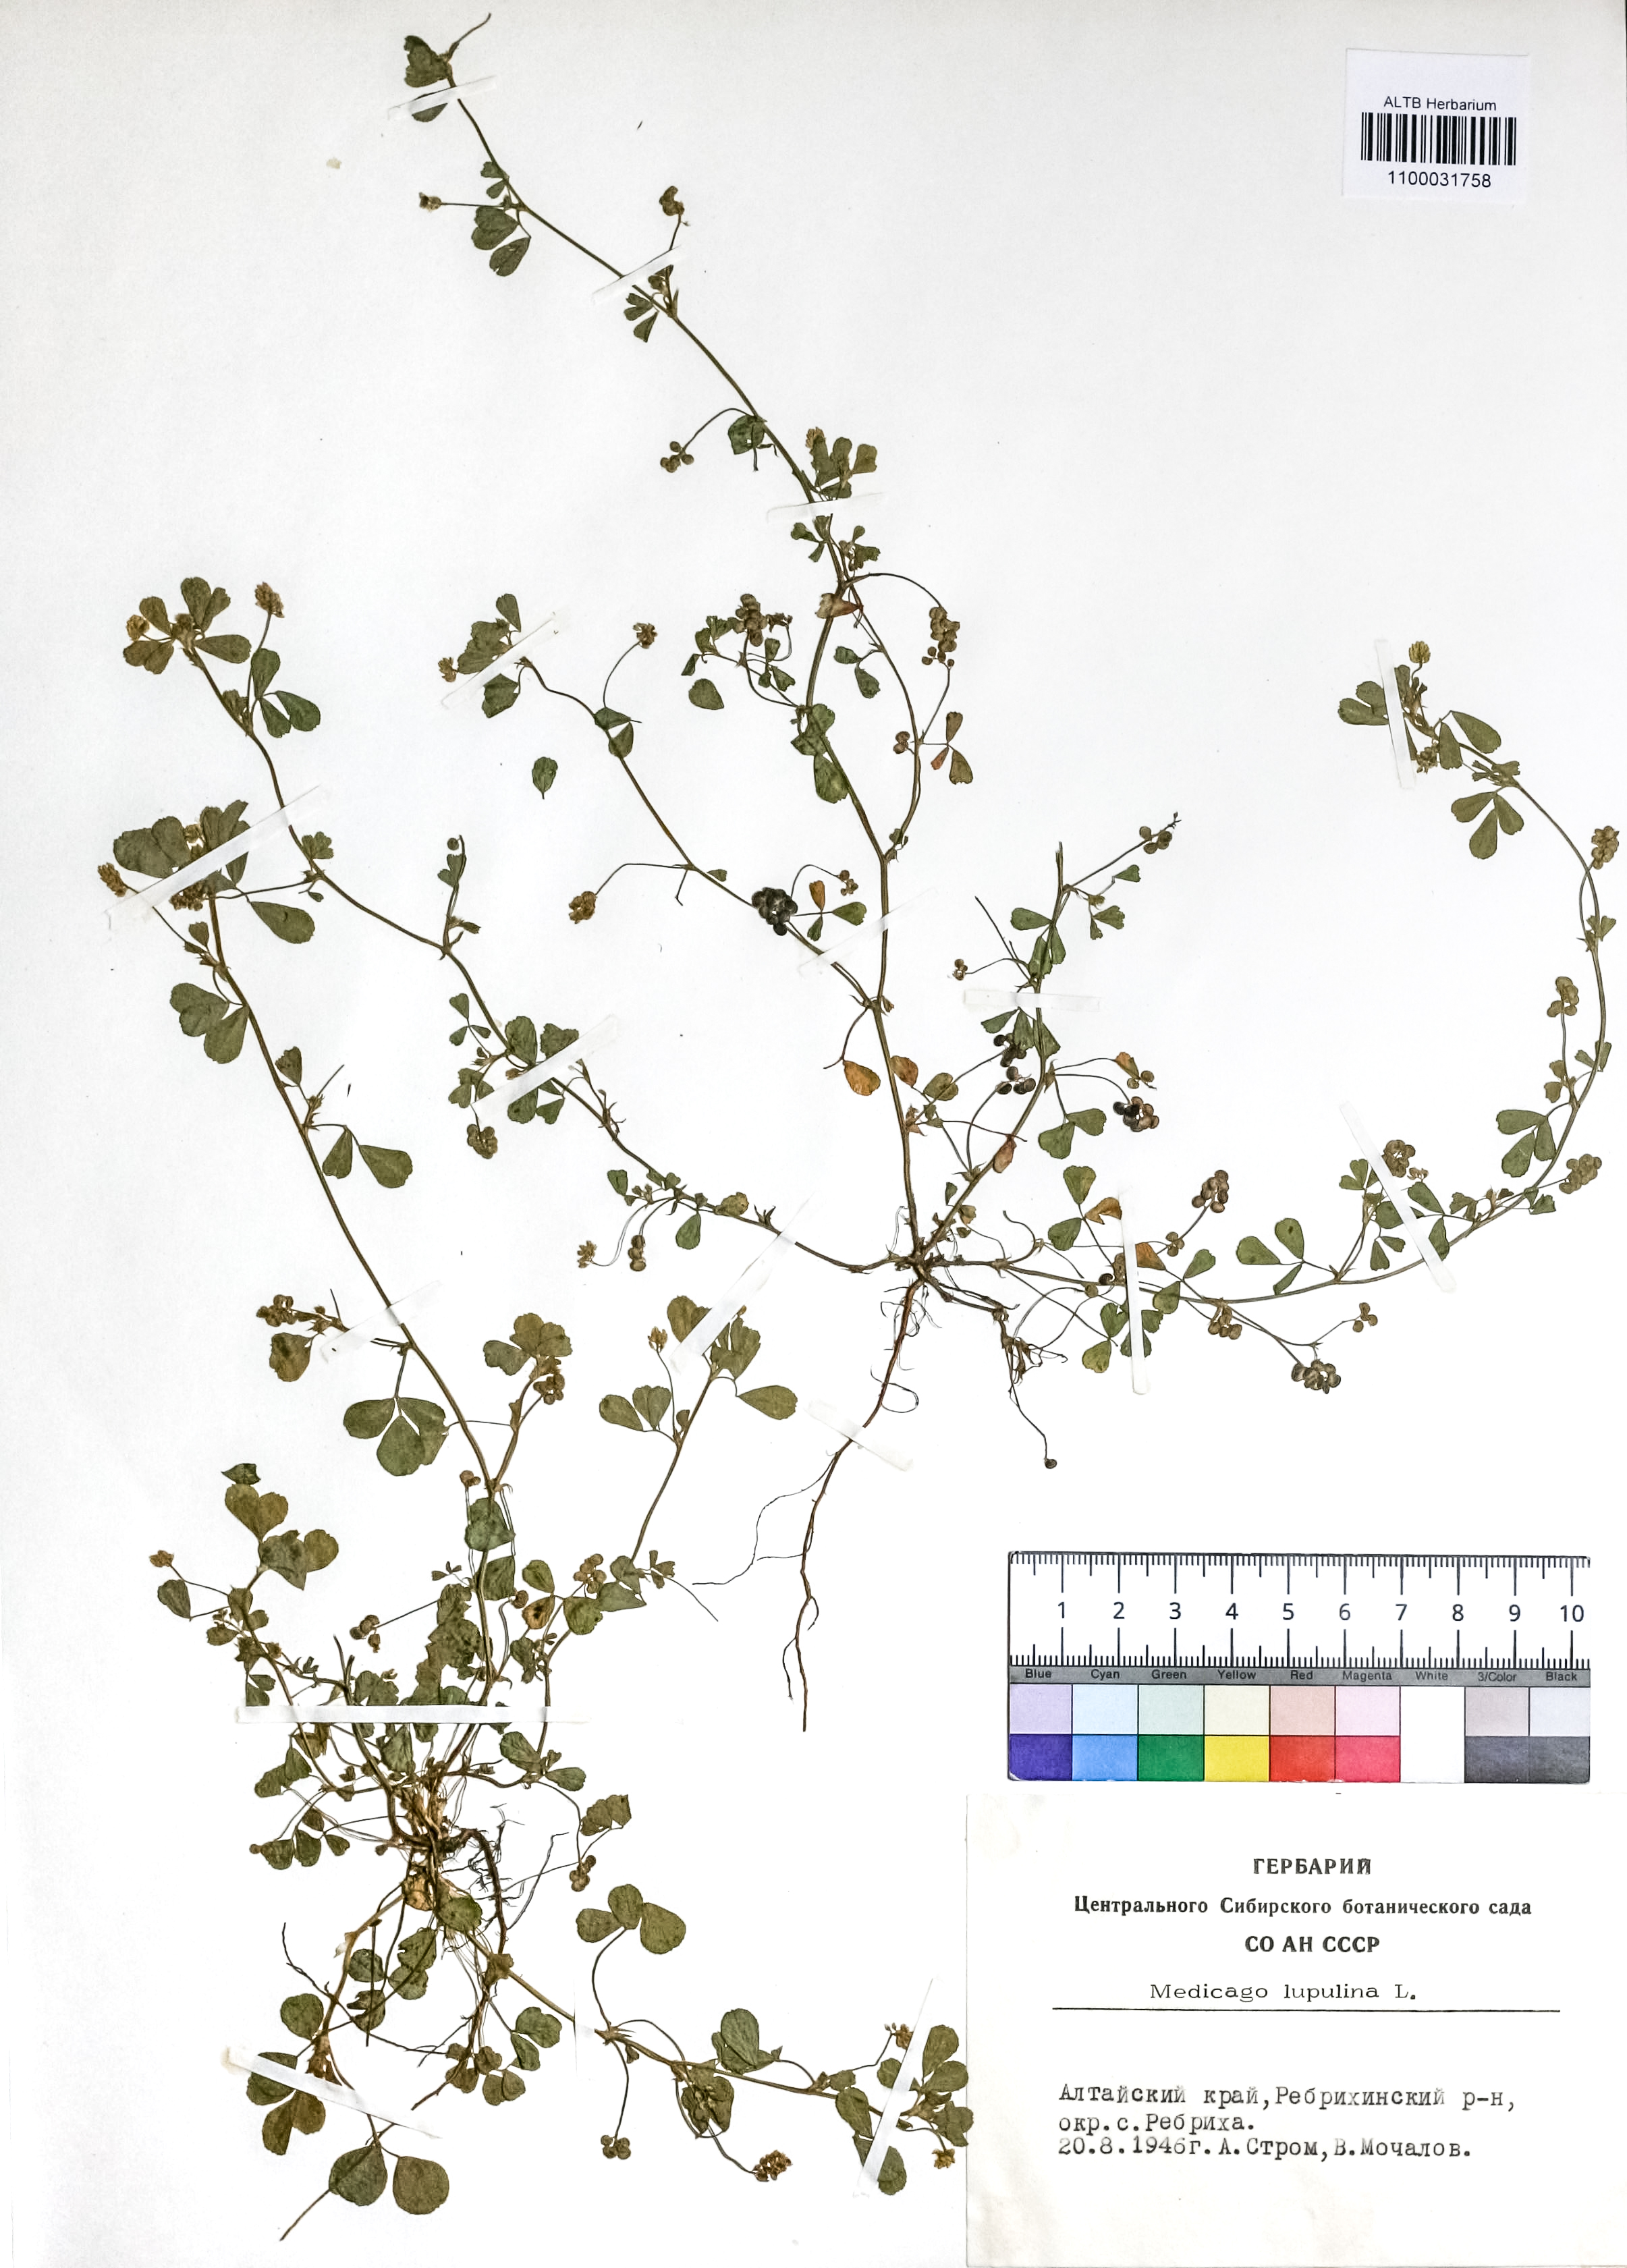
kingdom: Plantae
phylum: Tracheophyta
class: Magnoliopsida
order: Fabales
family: Fabaceae
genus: Medicago
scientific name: Medicago lupulina
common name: Black medick
